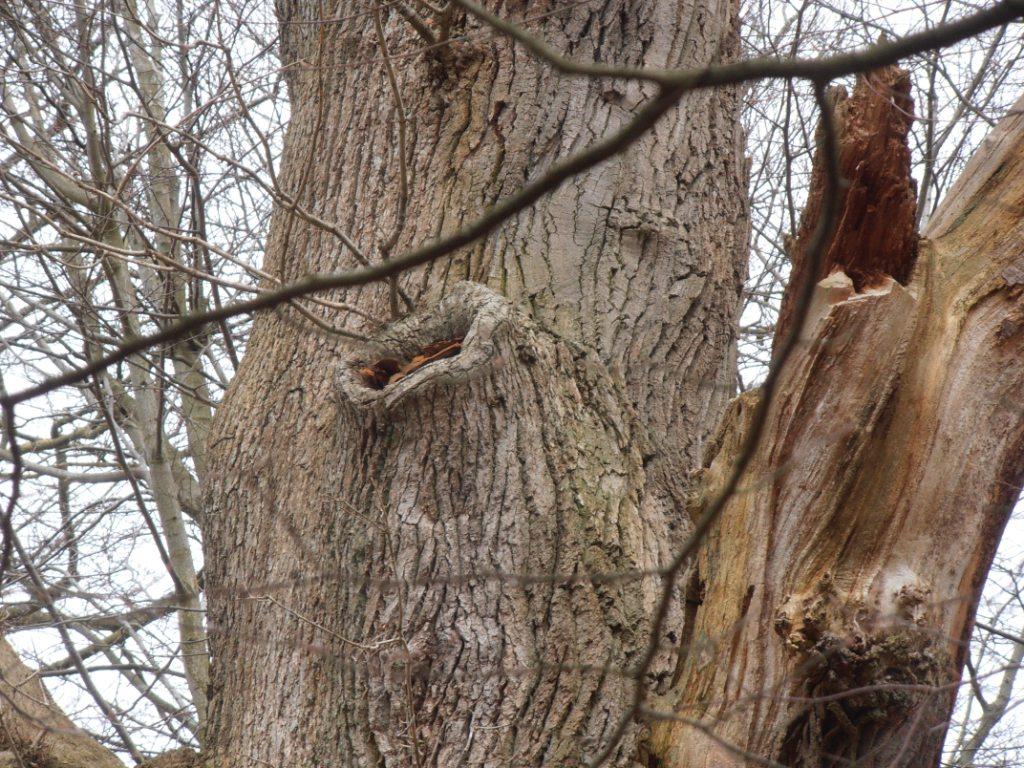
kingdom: Fungi
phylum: Basidiomycota
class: Agaricomycetes
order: Polyporales
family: Phanerochaetaceae
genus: Hapalopilus
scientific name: Hapalopilus croceus
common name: safrangul pragtporesvamp
